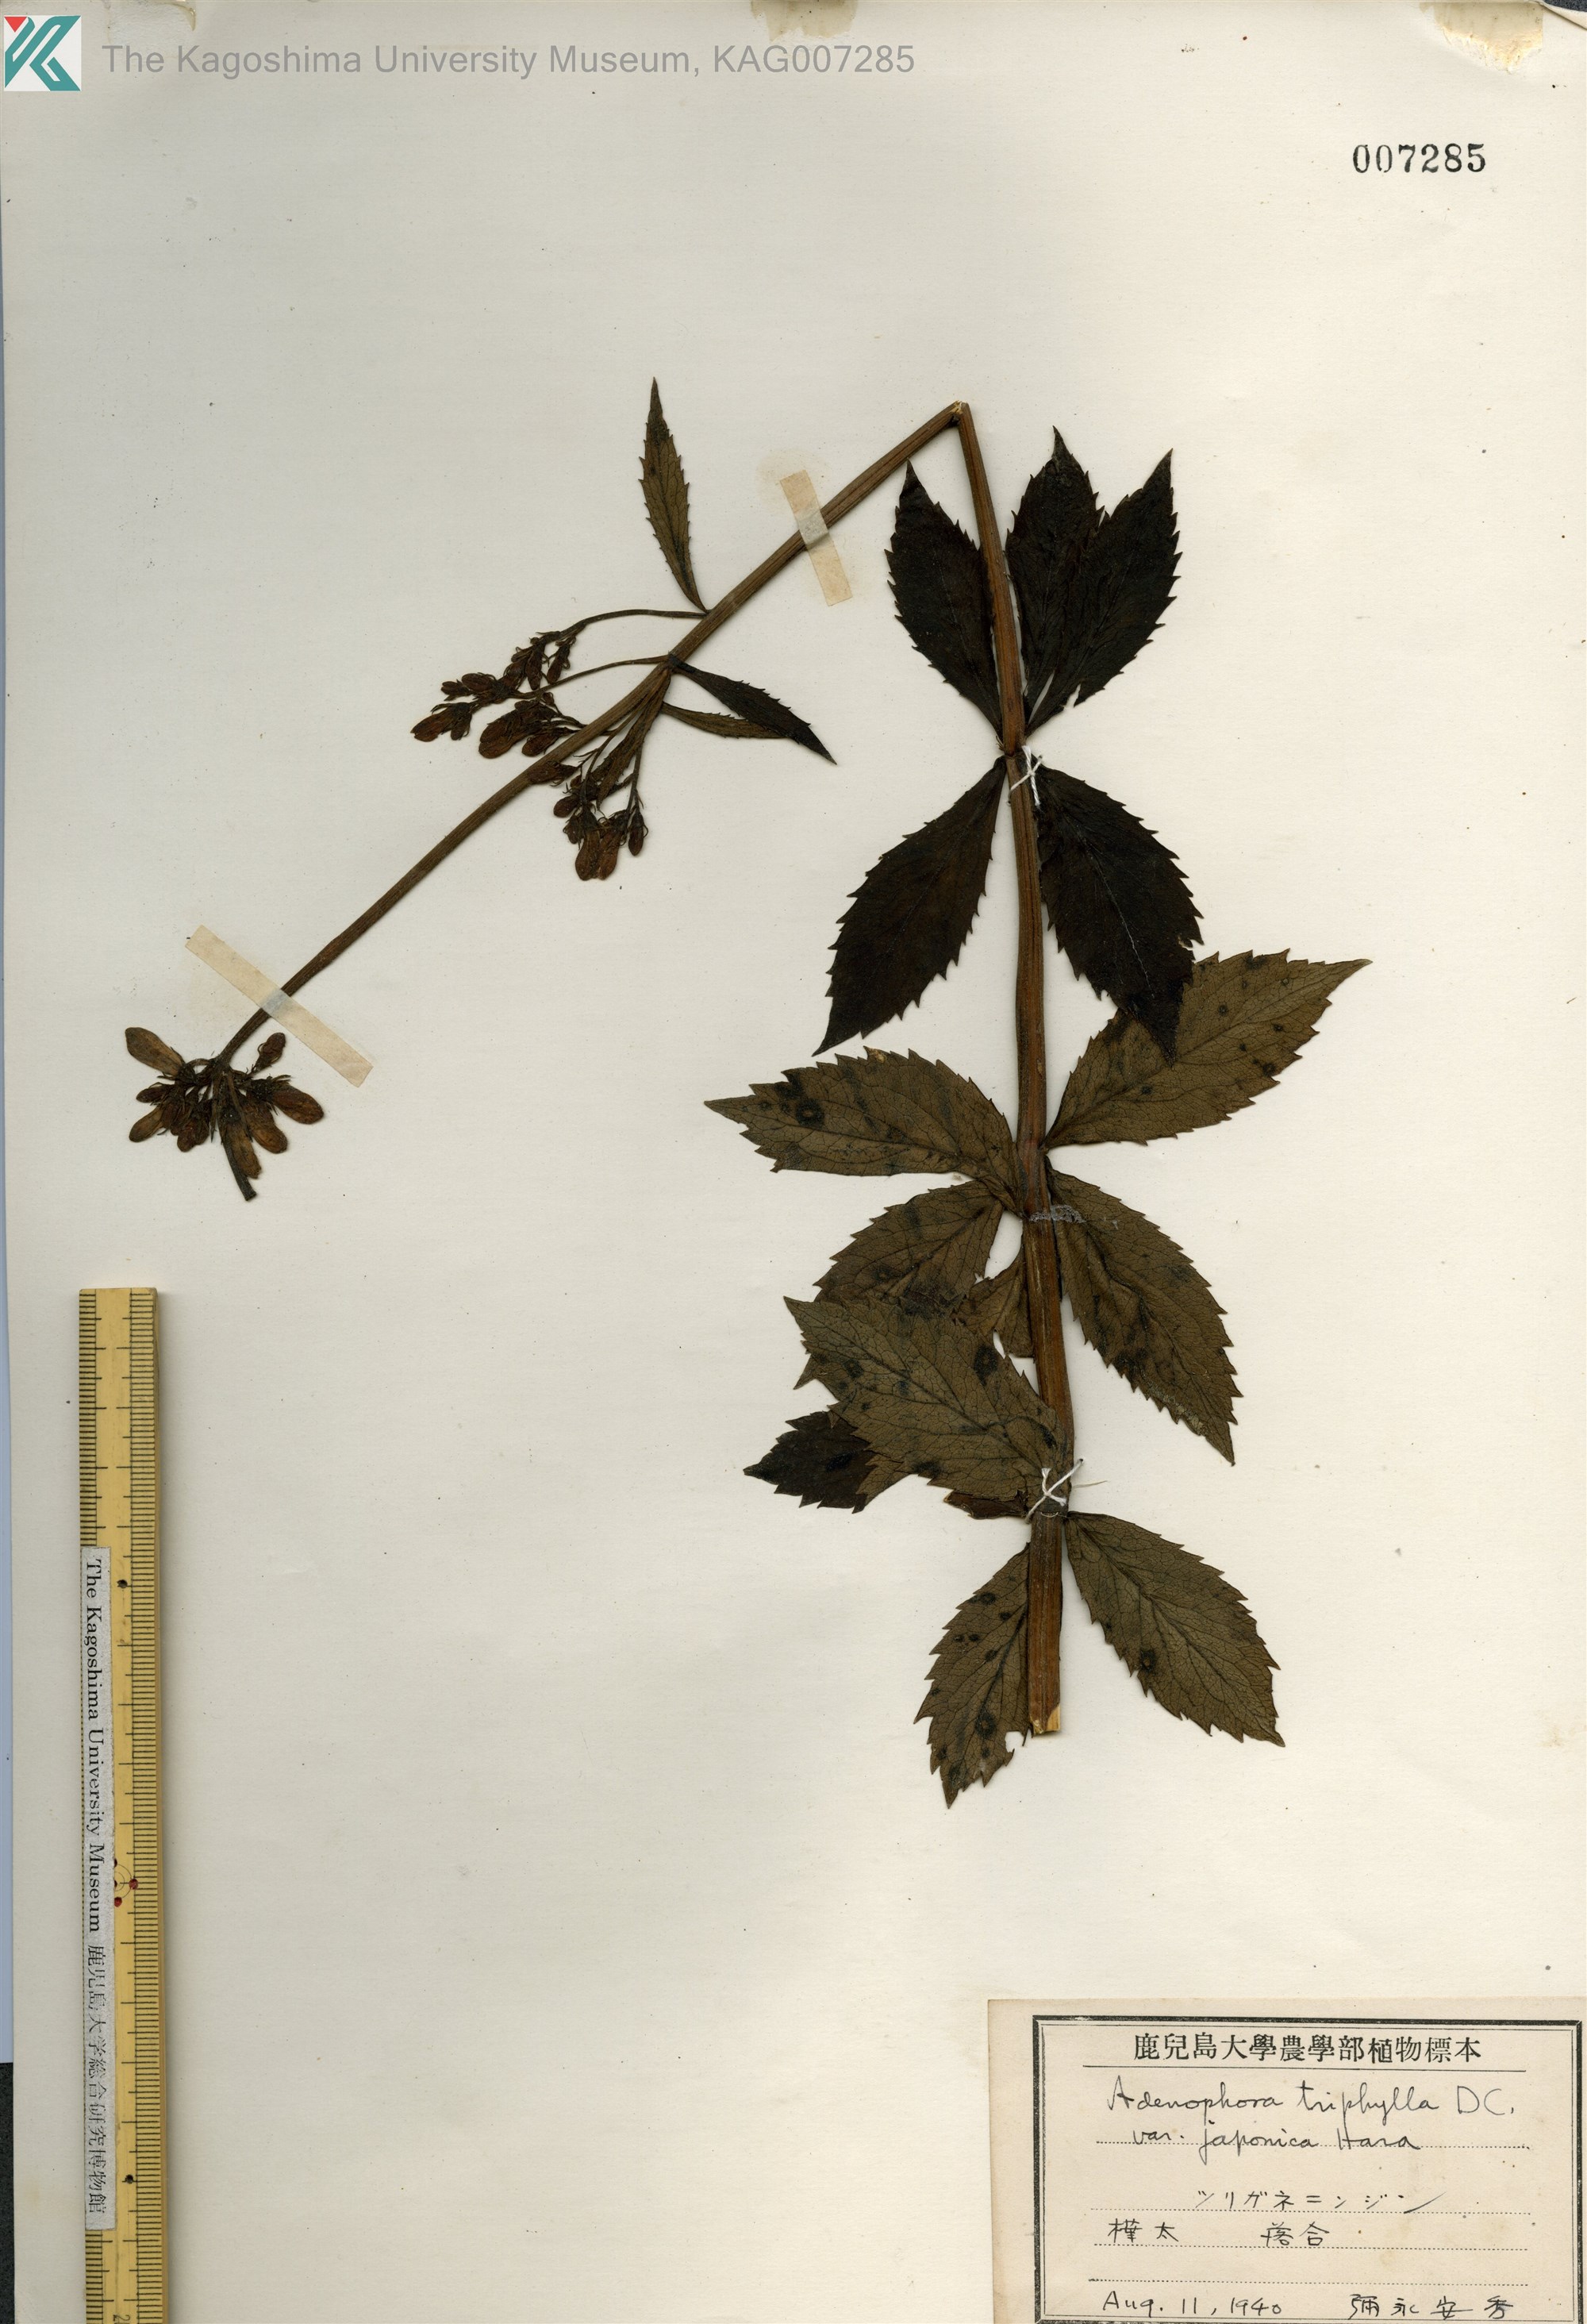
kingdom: Plantae
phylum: Tracheophyta
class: Magnoliopsida
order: Asterales
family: Campanulaceae
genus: Adenophora
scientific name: Adenophora triphylla
